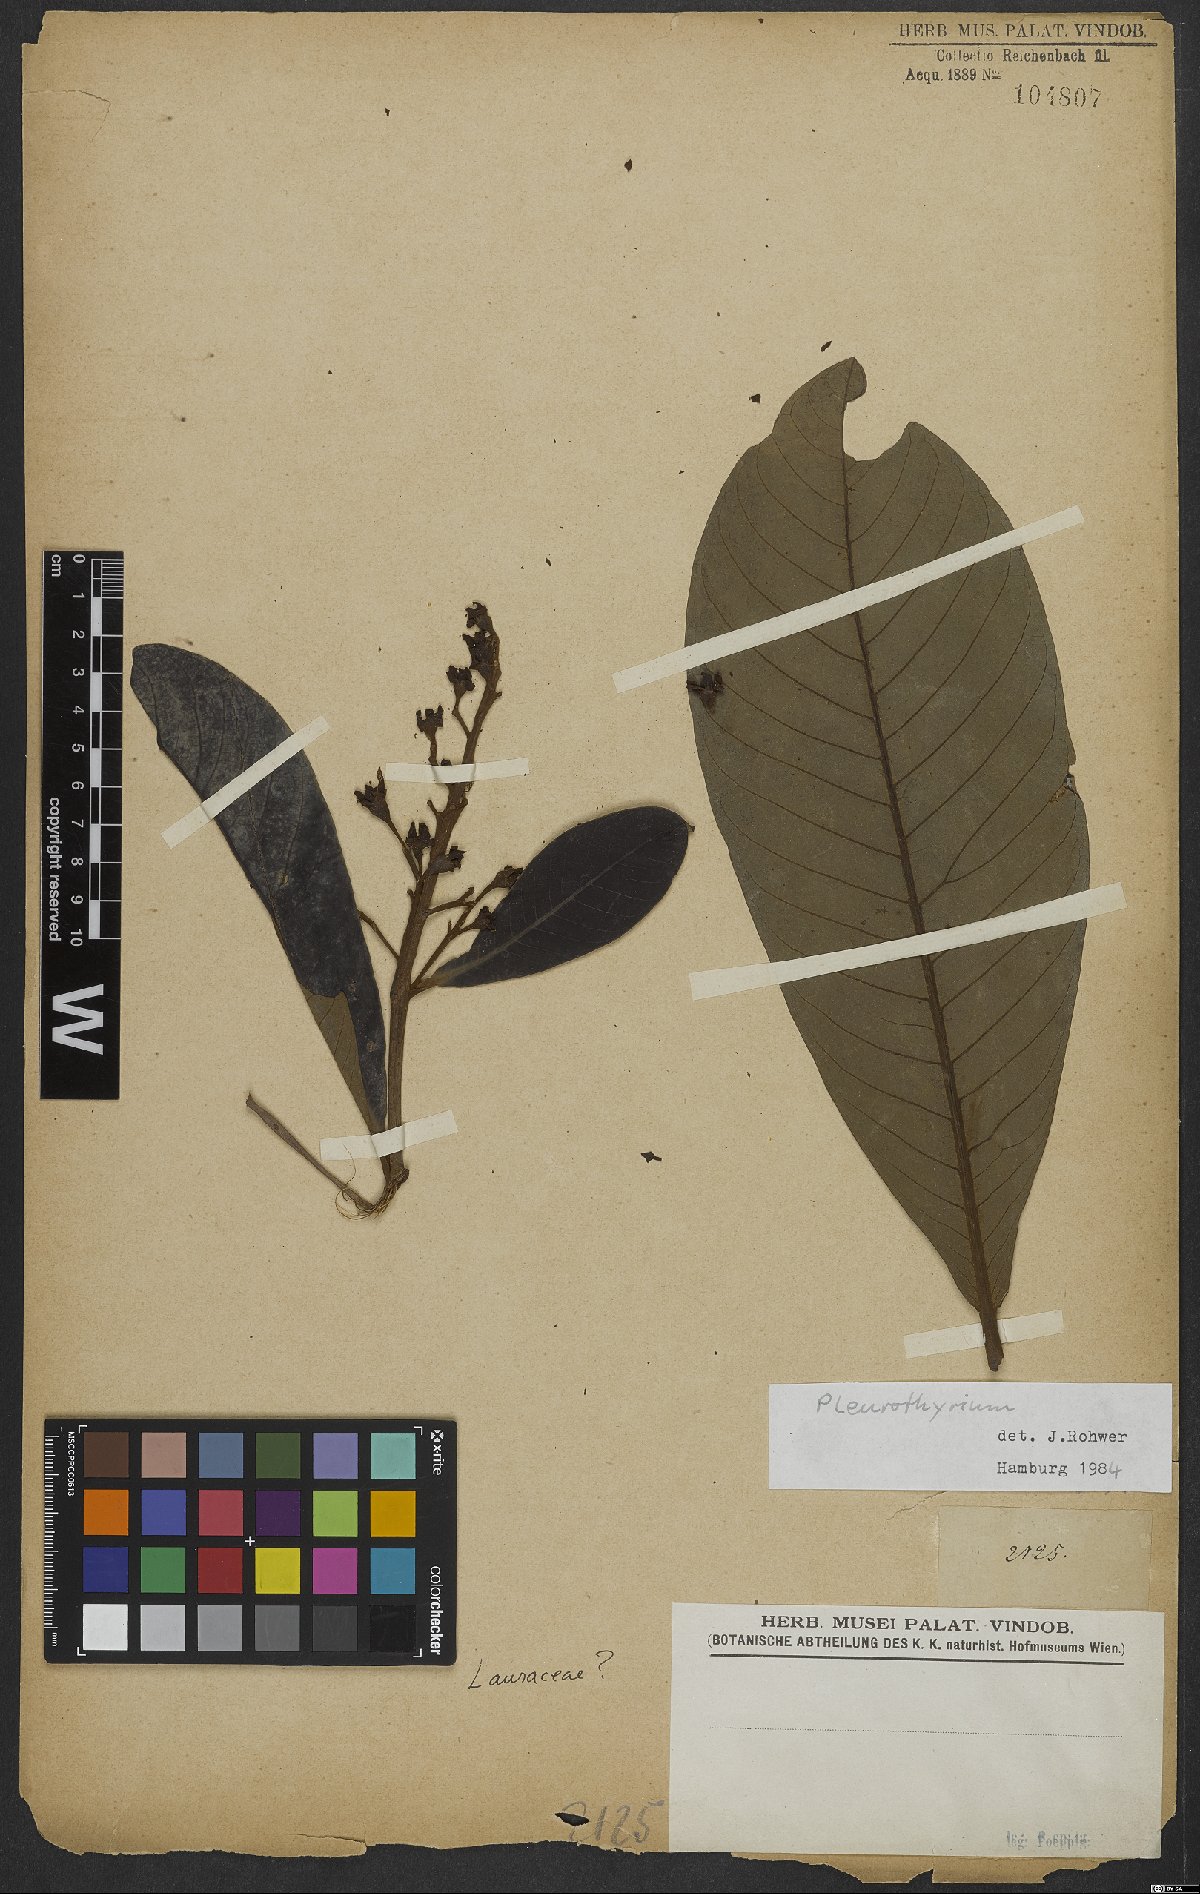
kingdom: Plantae
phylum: Tracheophyta
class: Magnoliopsida
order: Laurales
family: Lauraceae
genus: Pleurothyrium
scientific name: Pleurothyrium
